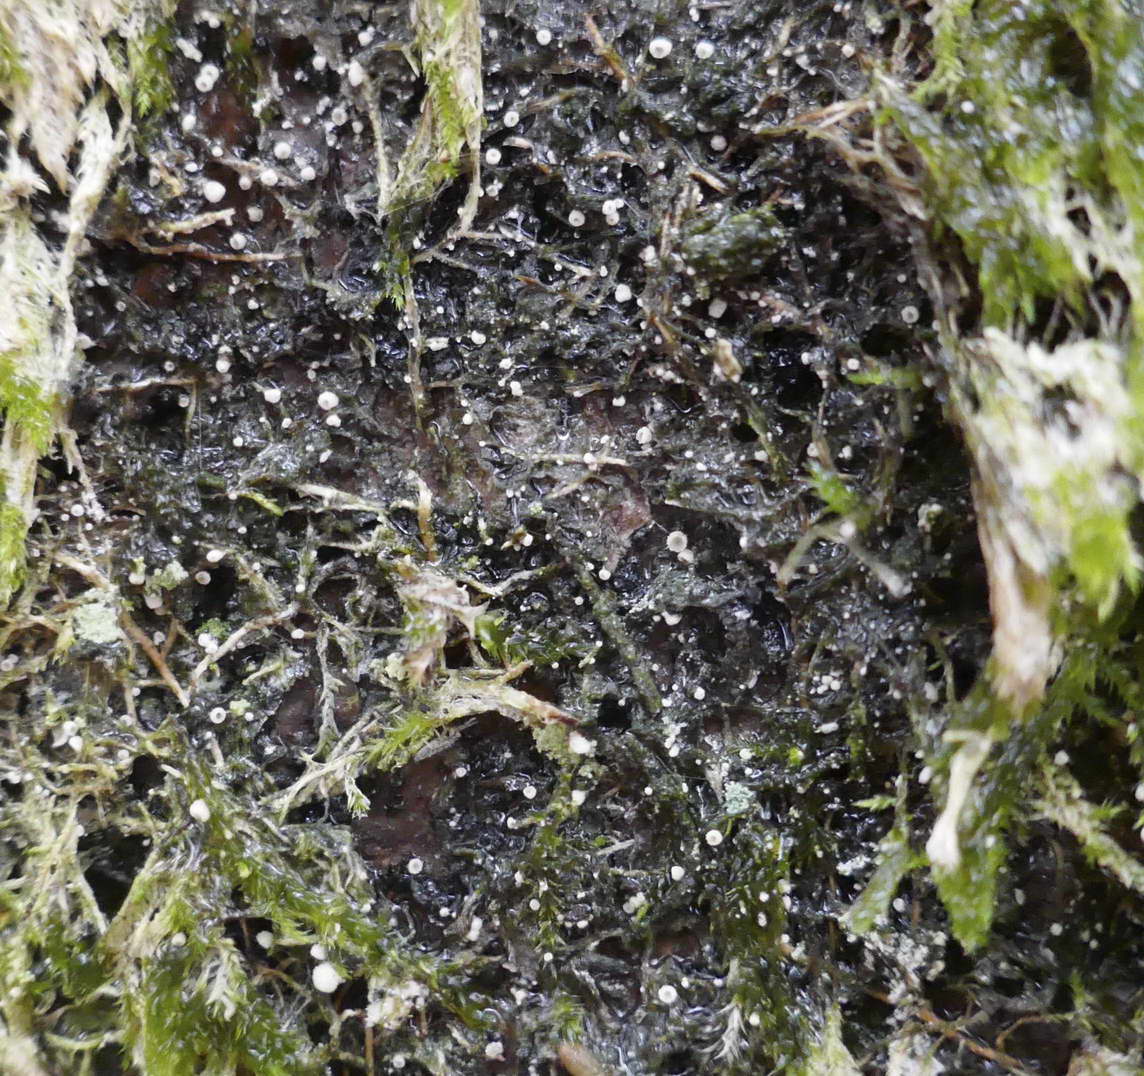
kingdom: Fungi
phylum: Basidiomycota
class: Agaricomycetes
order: Agaricales
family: Chromocyphellaceae
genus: Chromocyphella
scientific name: Chromocyphella muscicola
